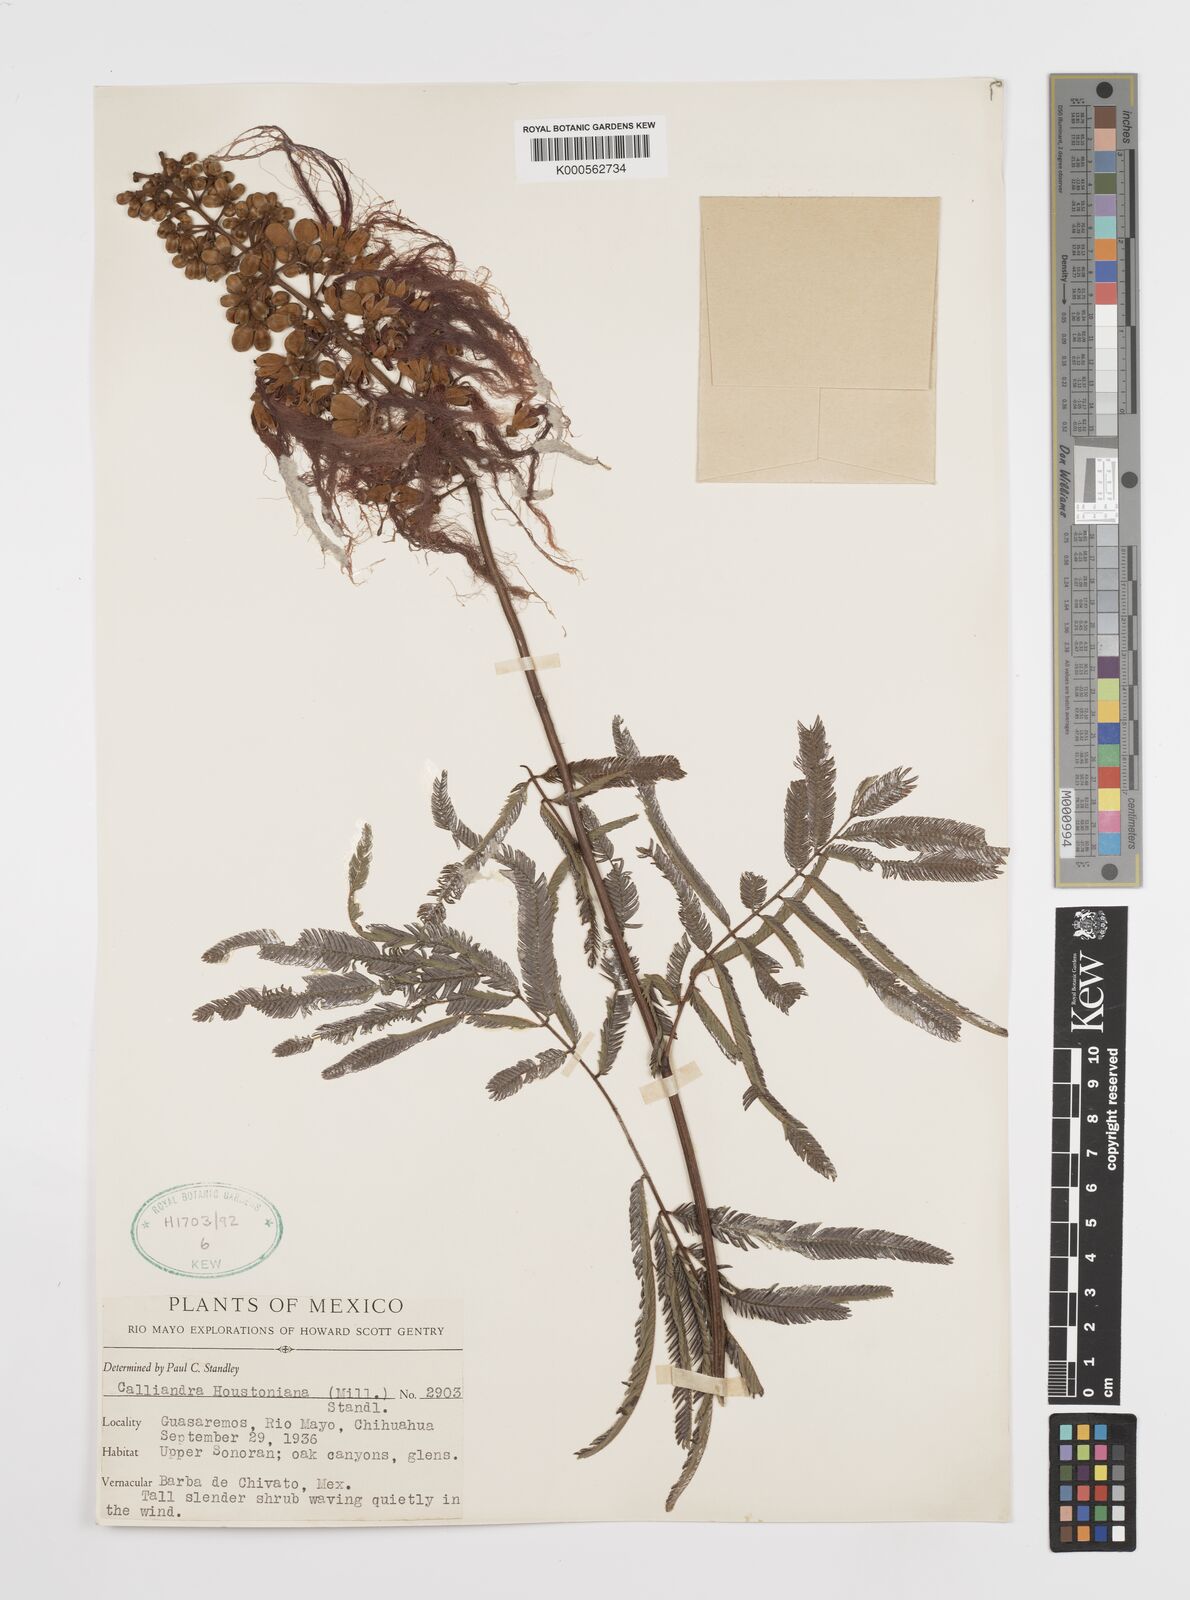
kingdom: Plantae
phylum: Tracheophyta
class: Magnoliopsida
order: Fabales
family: Fabaceae
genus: Calliandra
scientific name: Calliandra houstoniana
